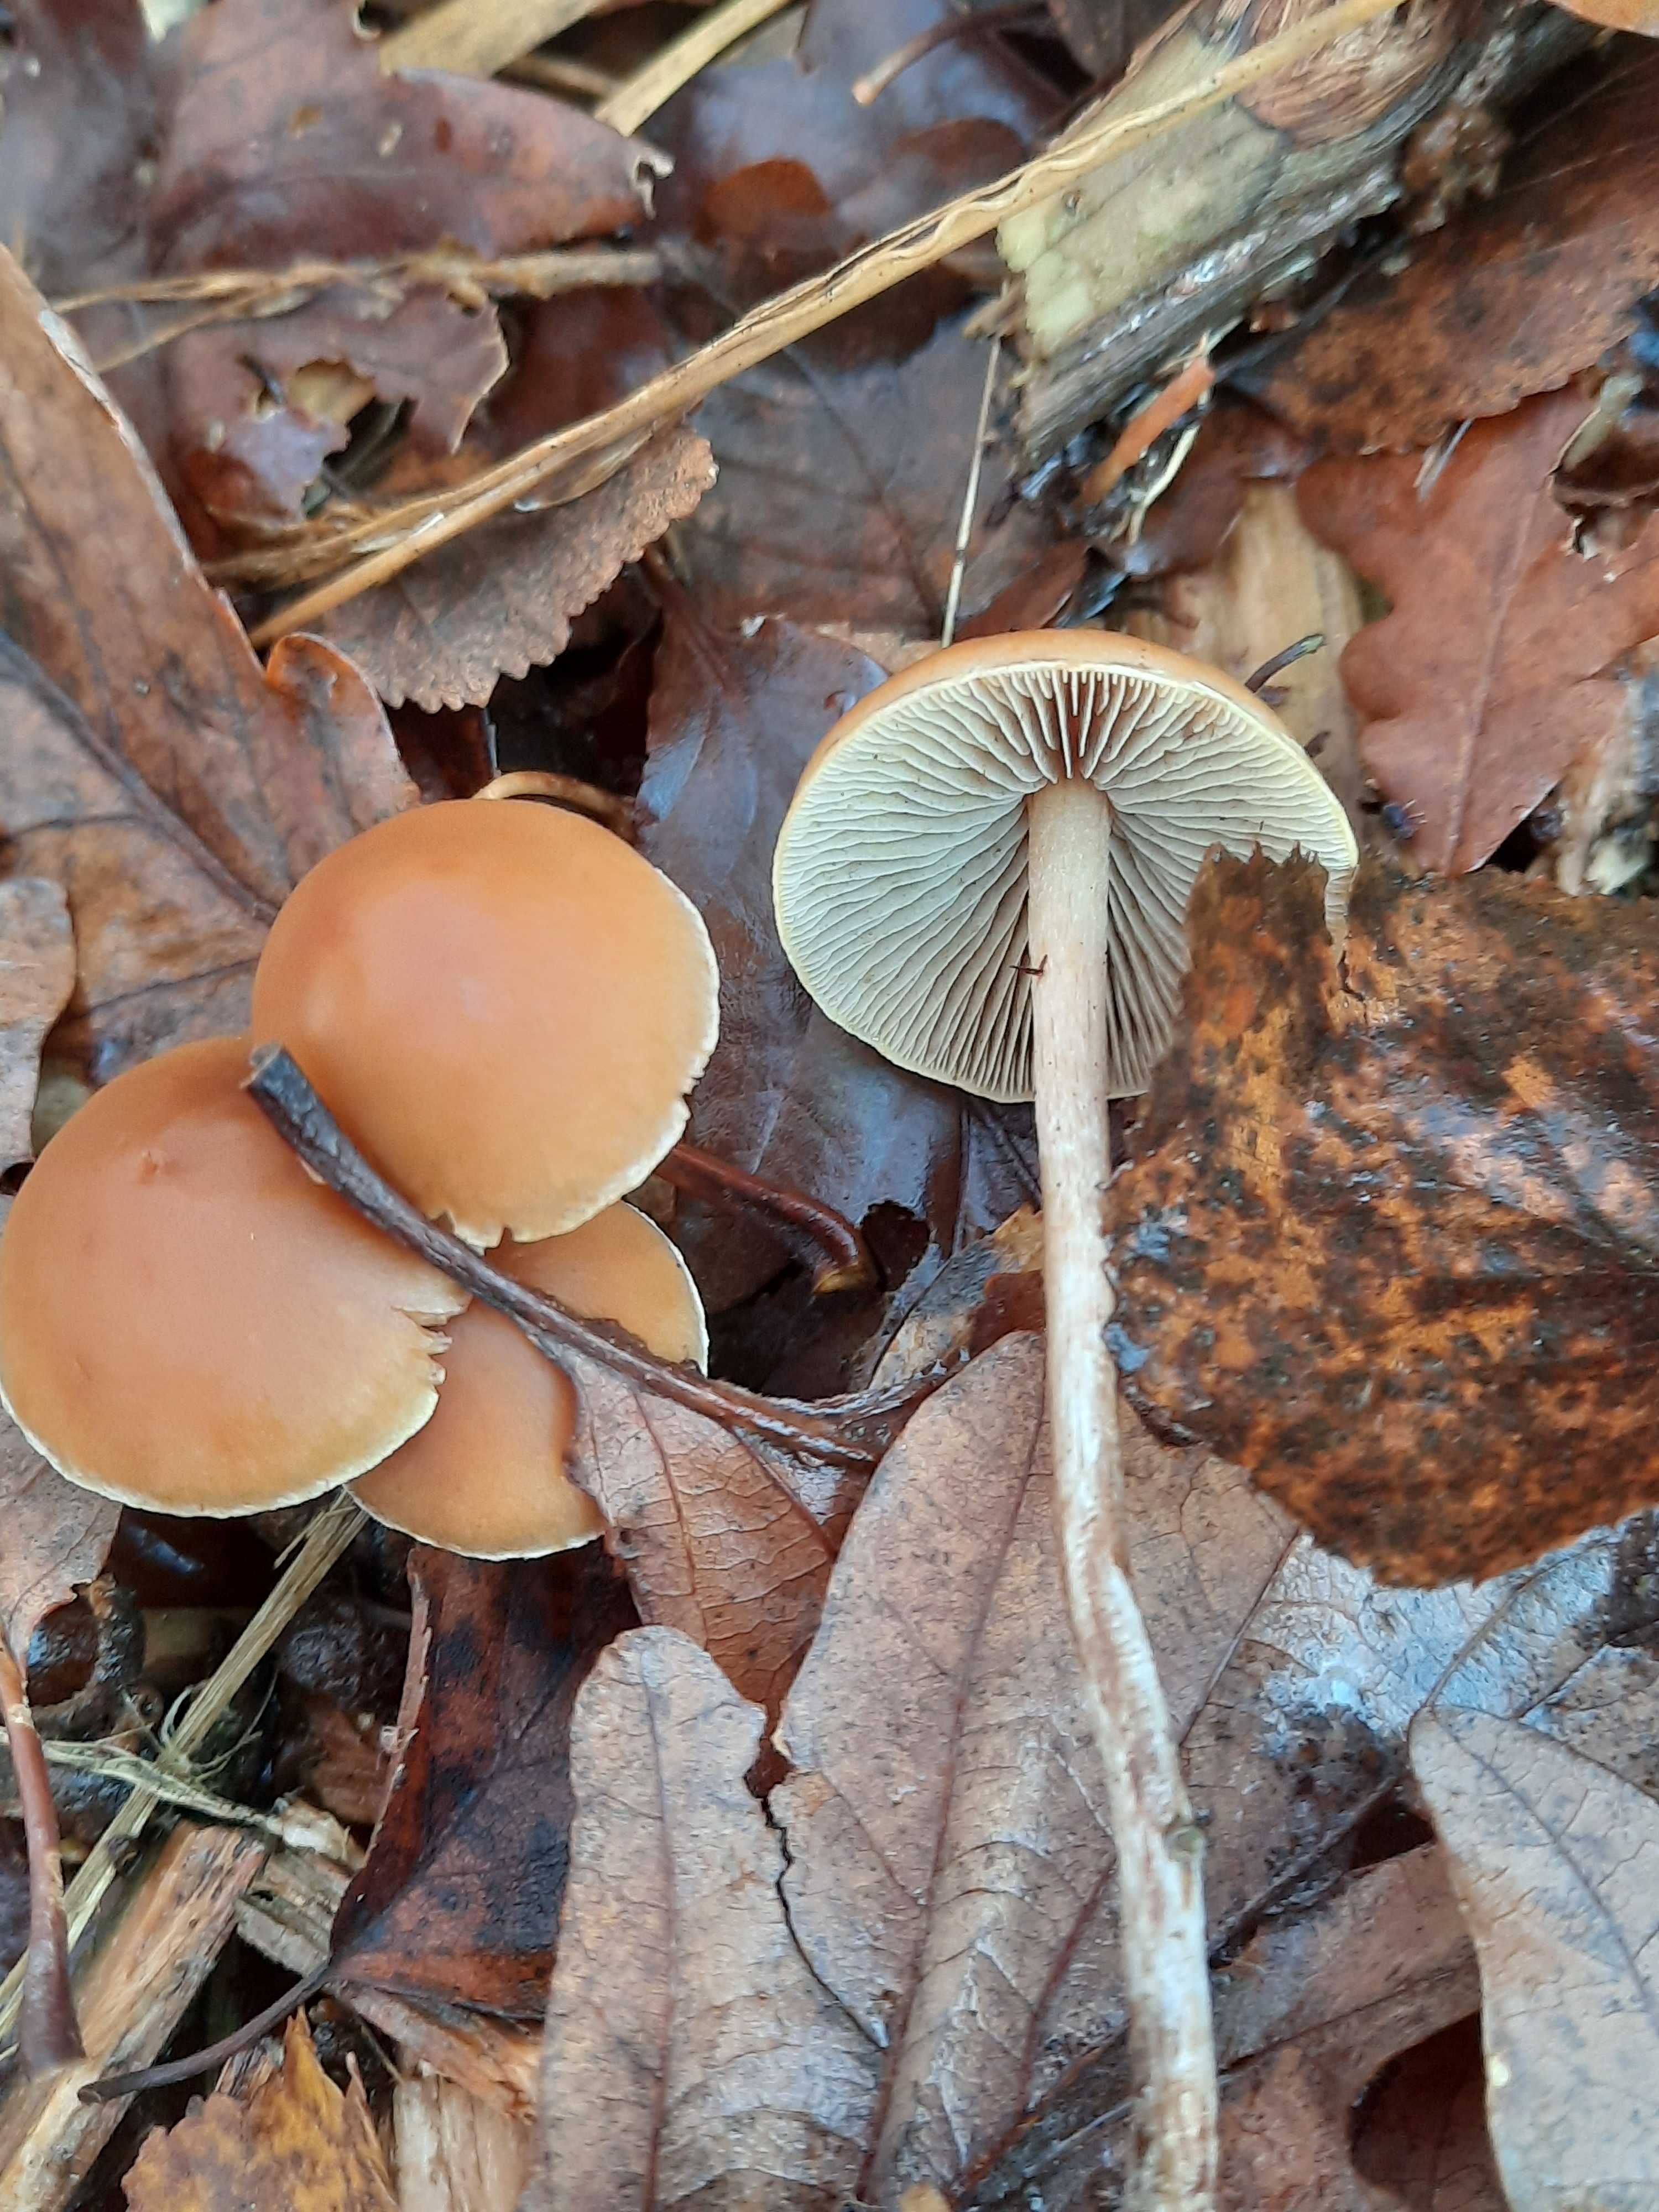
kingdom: Fungi
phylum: Basidiomycota
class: Agaricomycetes
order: Agaricales
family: Strophariaceae
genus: Hypholoma
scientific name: Hypholoma marginatum
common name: enlig svovlhat
